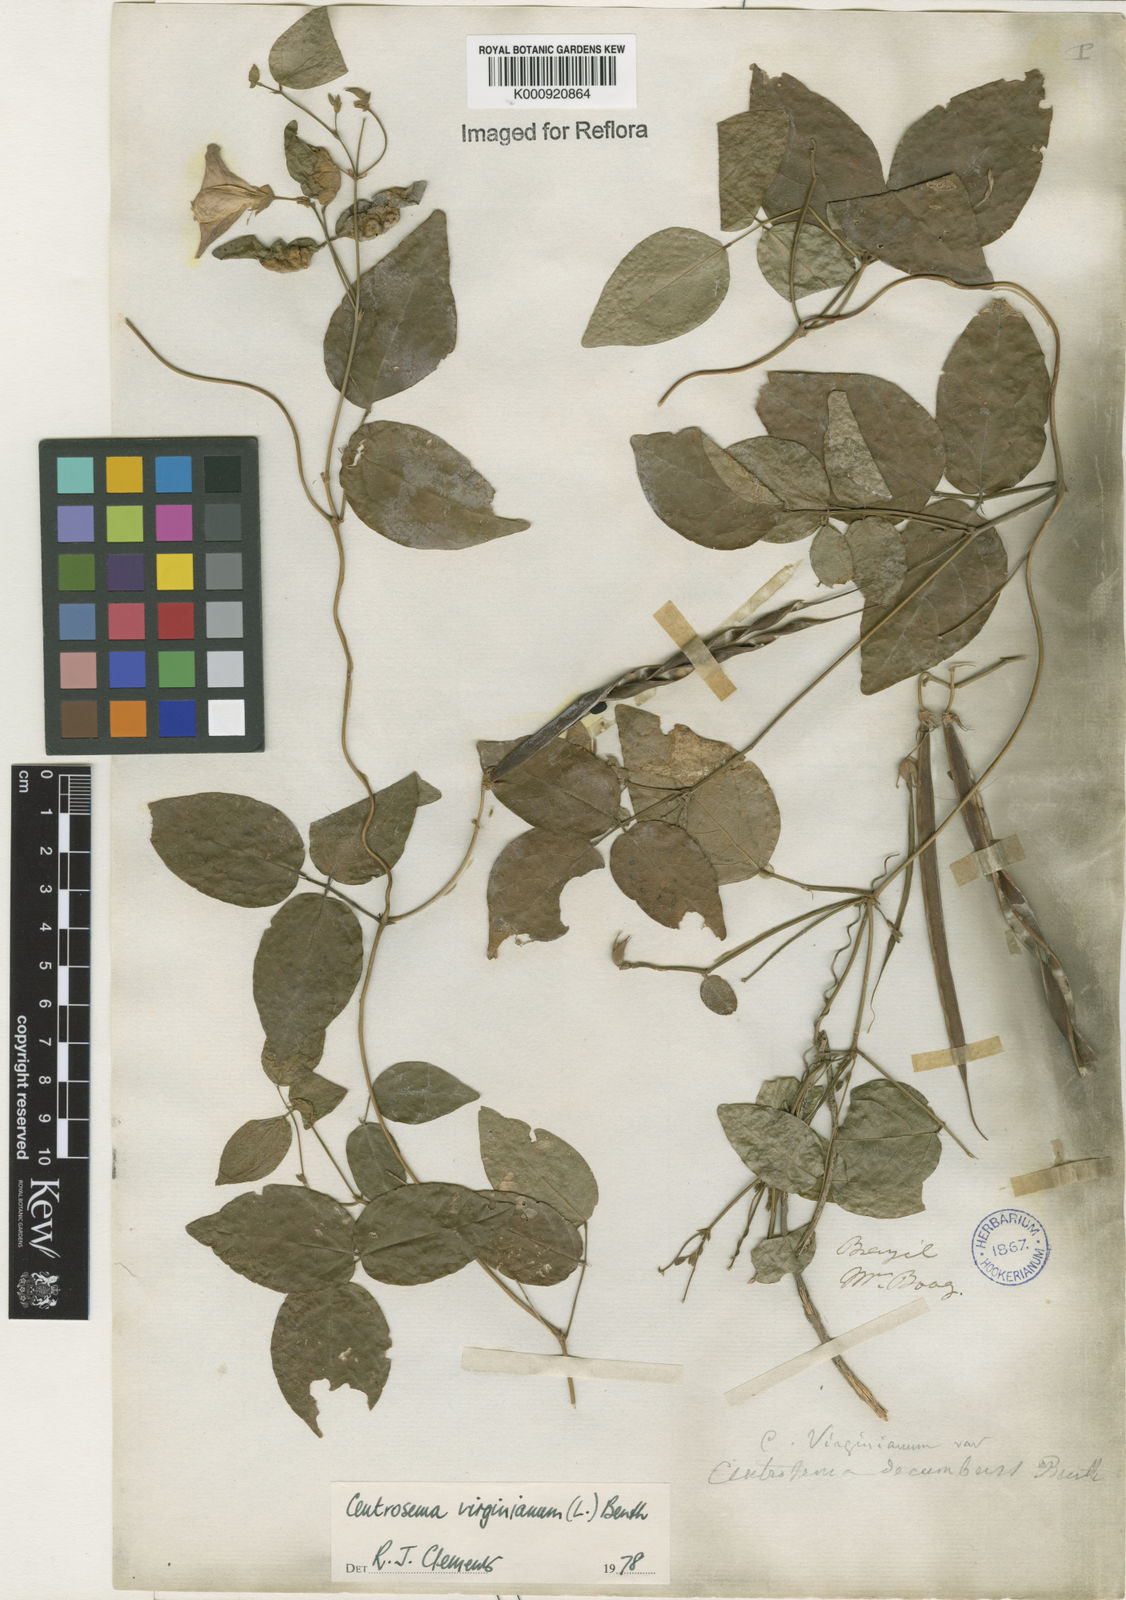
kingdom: Plantae
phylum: Tracheophyta
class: Magnoliopsida
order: Fabales
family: Fabaceae
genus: Centrosema
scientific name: Centrosema virginianum
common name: Butterfly-pea
